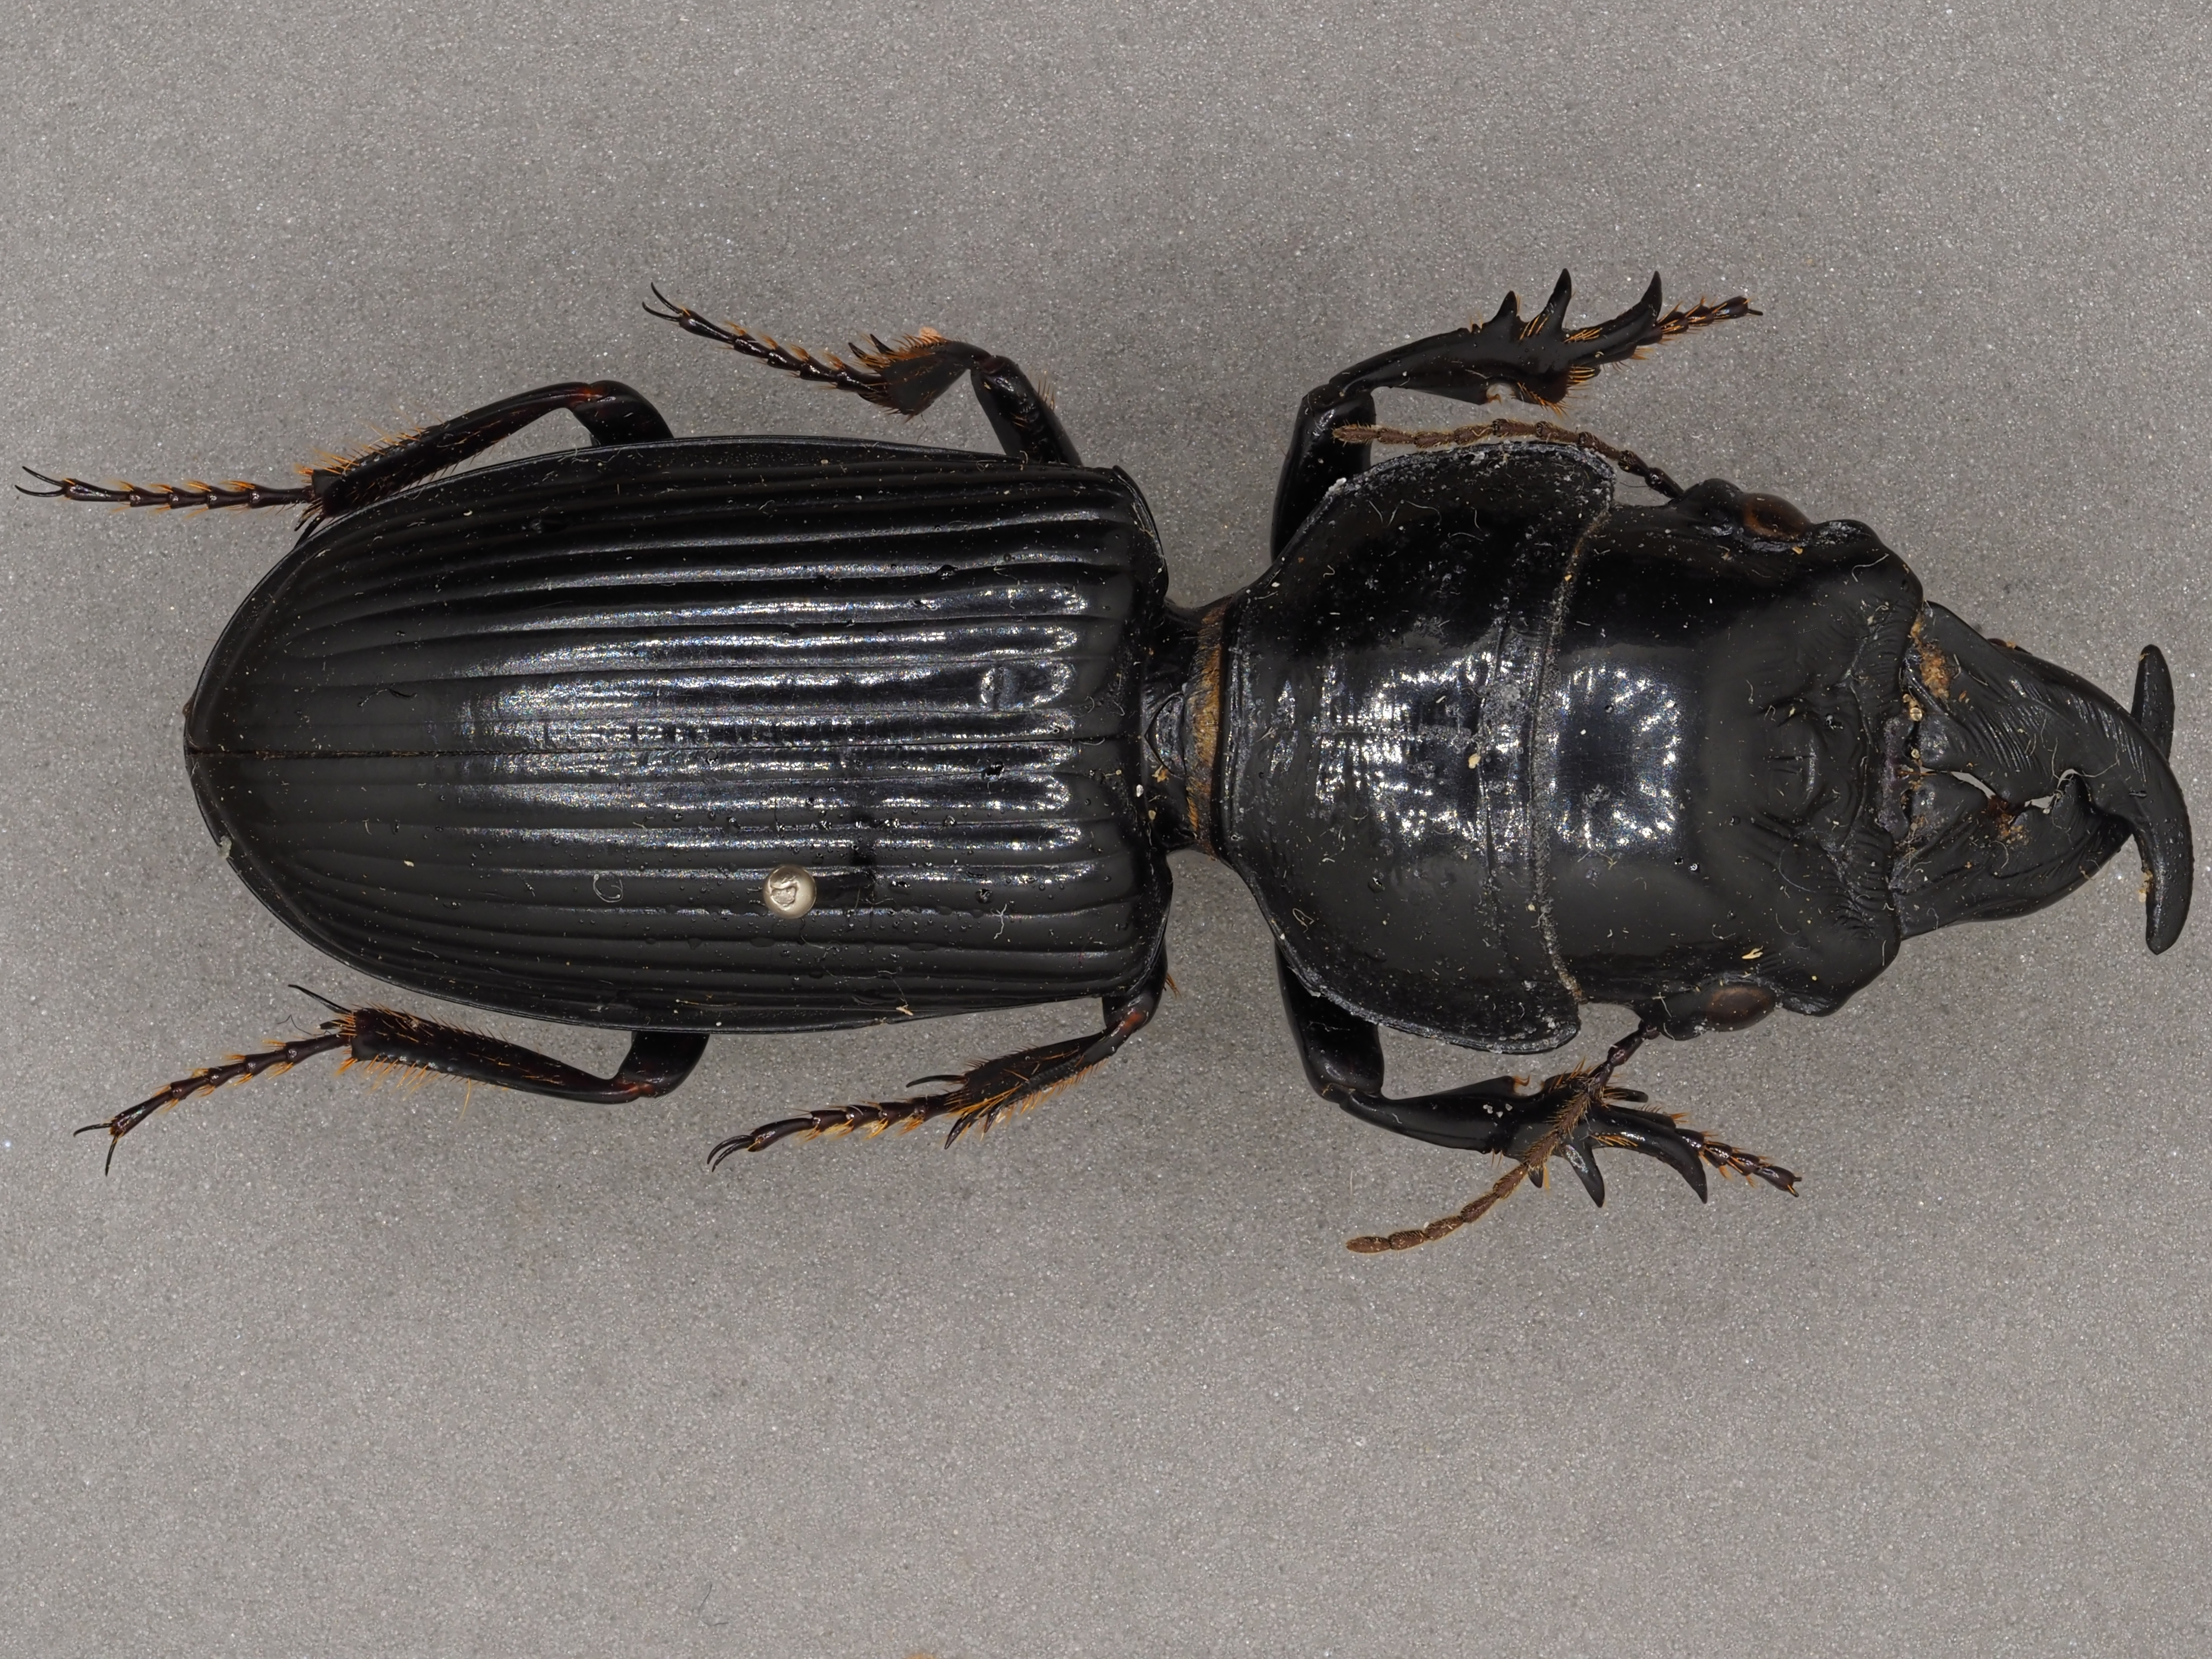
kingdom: Animalia
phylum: Arthropoda
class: Insecta
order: Coleoptera
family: Passalidae
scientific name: Passalidae
